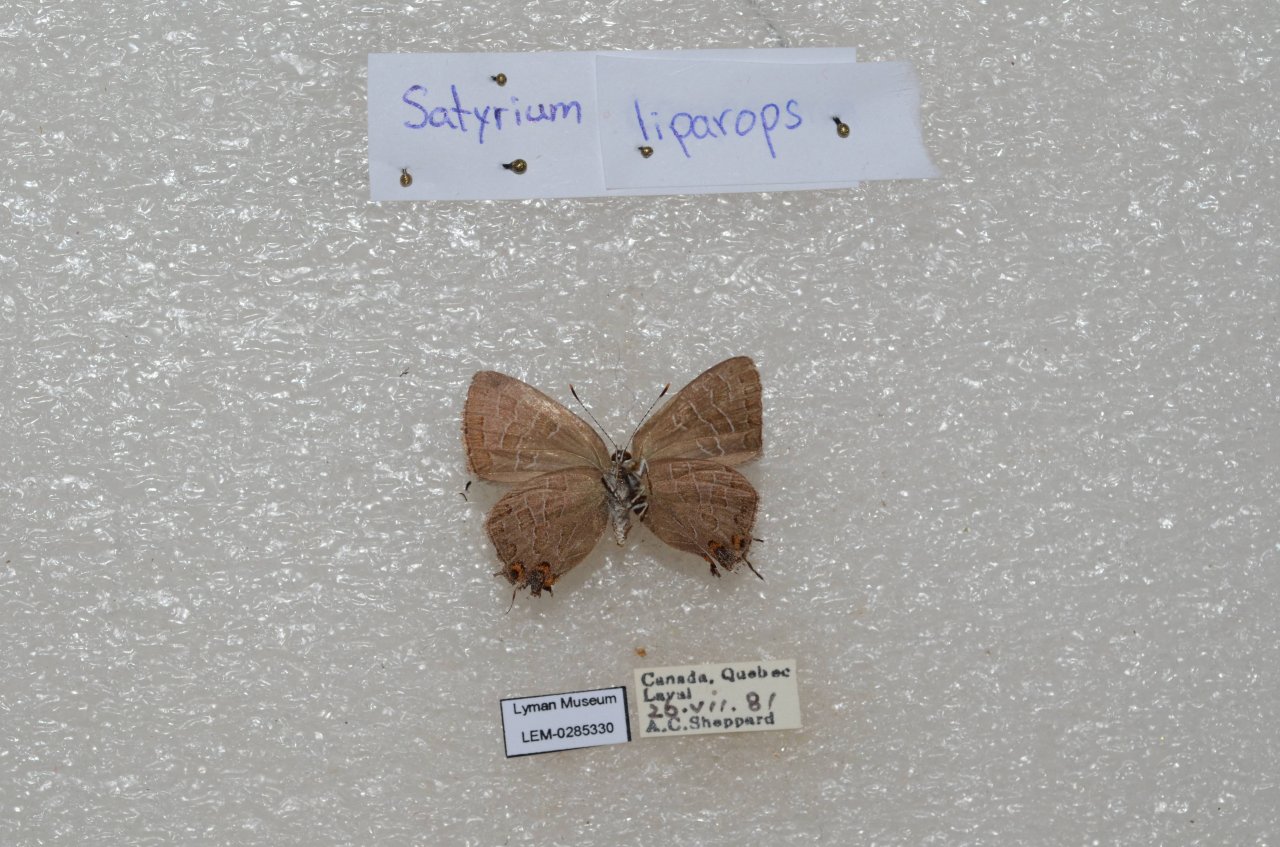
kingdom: Animalia
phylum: Arthropoda
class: Insecta
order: Lepidoptera
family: Lycaenidae
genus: Satyrium
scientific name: Satyrium liparops
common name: Striped Hairstreak
